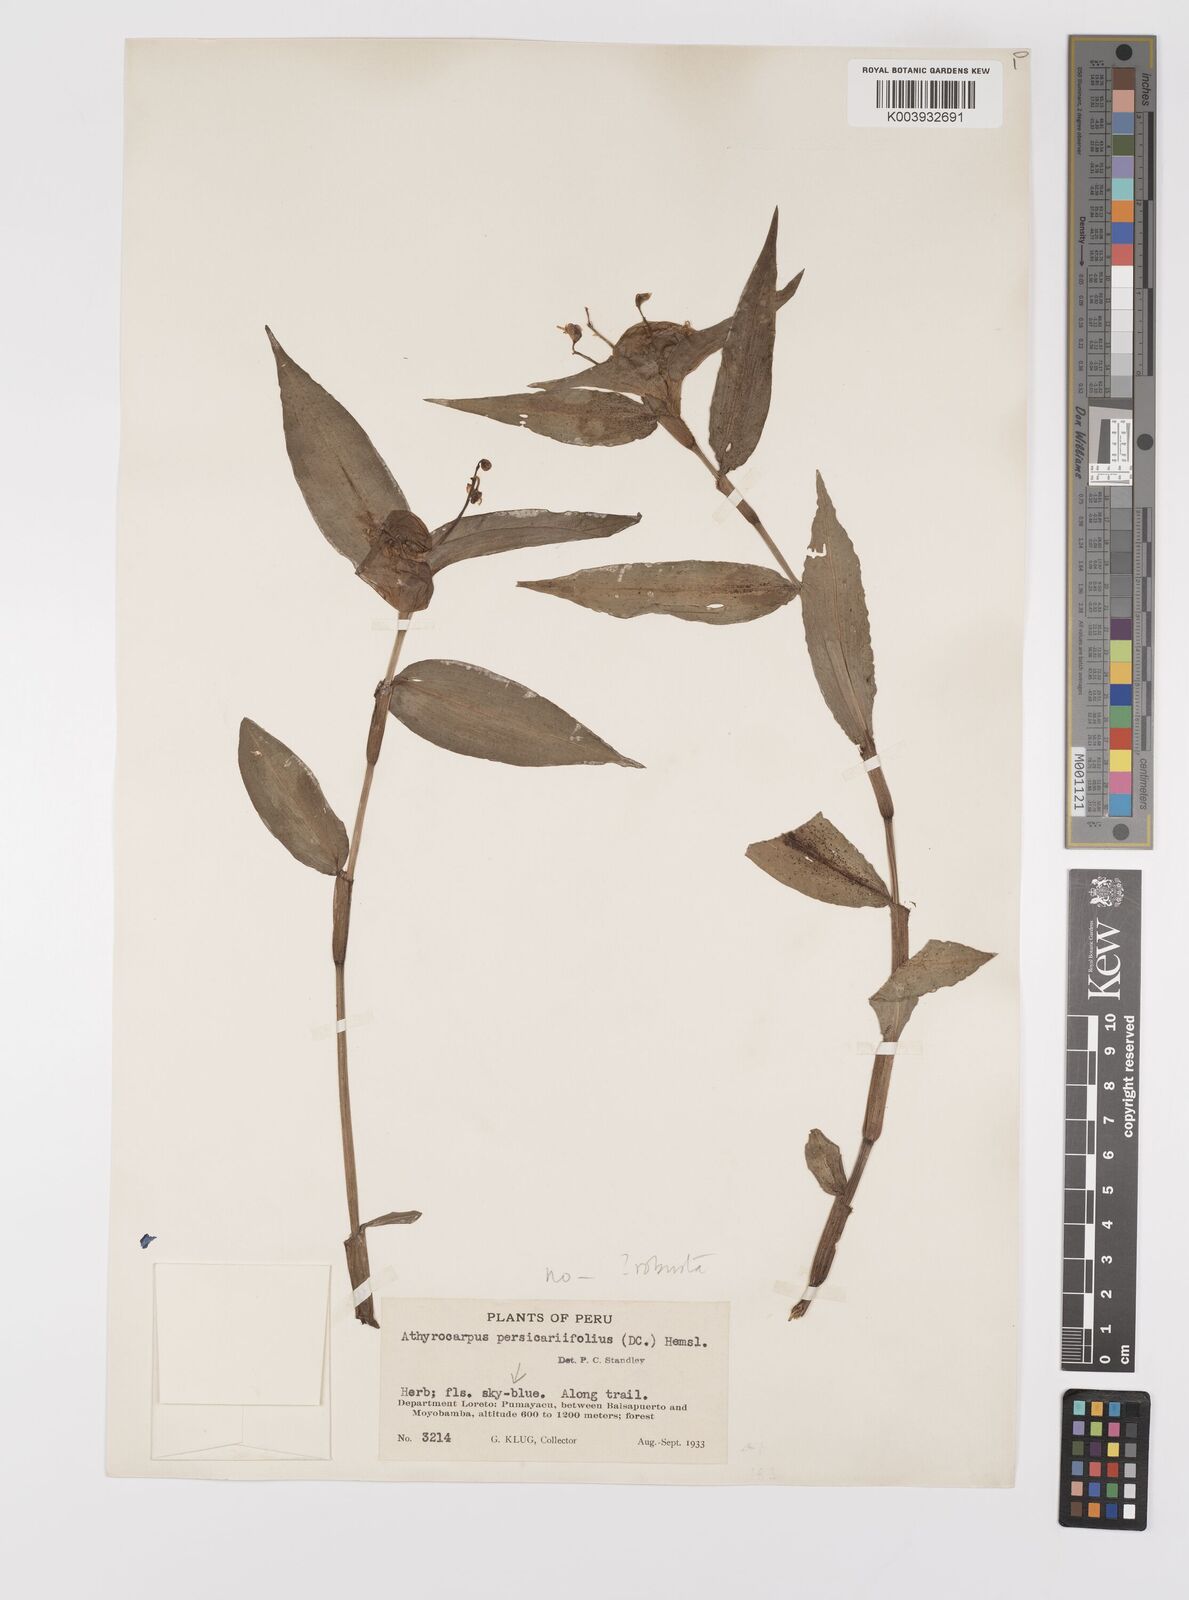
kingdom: Plantae
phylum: Tracheophyta
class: Liliopsida
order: Commelinales
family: Commelinaceae
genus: Commelina
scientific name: Commelina obliqua
